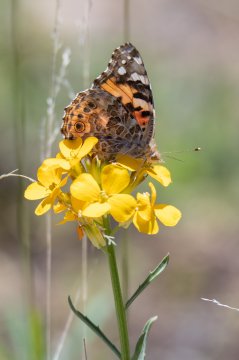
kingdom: Animalia
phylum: Arthropoda
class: Insecta
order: Lepidoptera
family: Nymphalidae
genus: Vanessa
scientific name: Vanessa cardui
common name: Painted Lady
